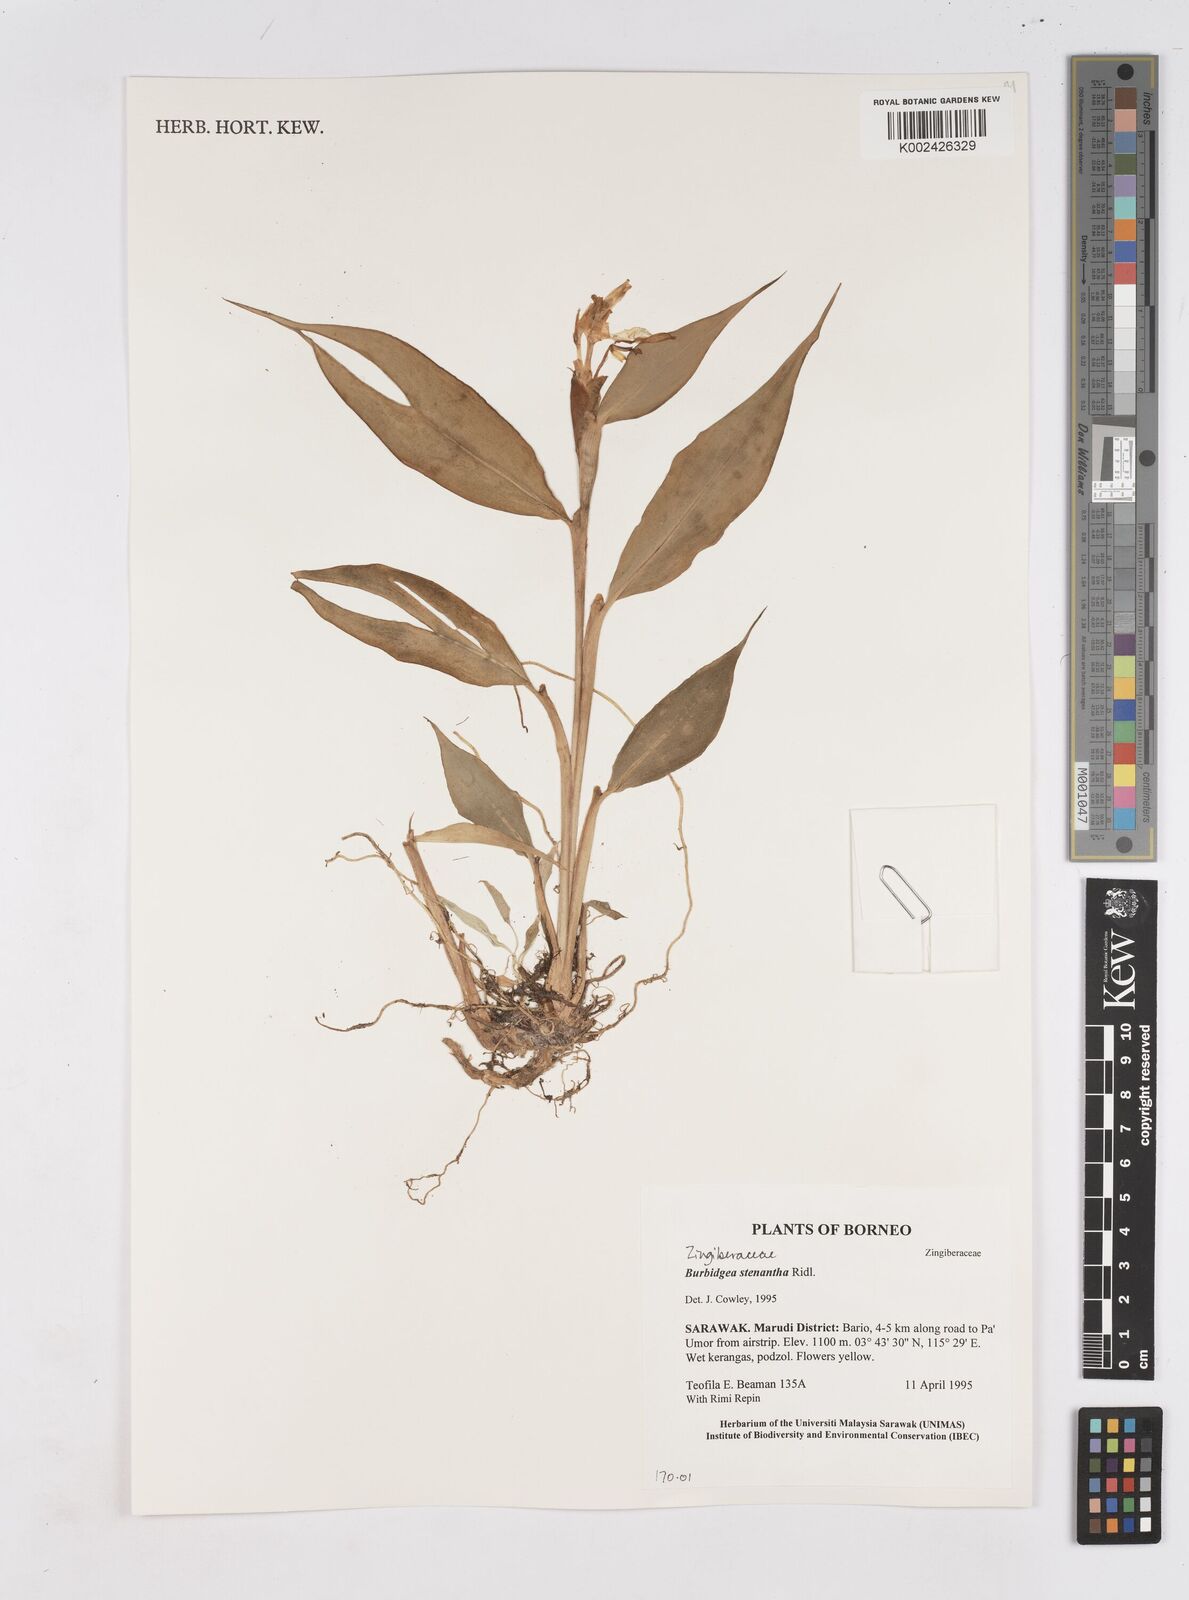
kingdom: Plantae
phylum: Tracheophyta
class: Liliopsida
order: Zingiberales
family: Zingiberaceae
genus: Burbidgea
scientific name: Burbidgea stenantha
